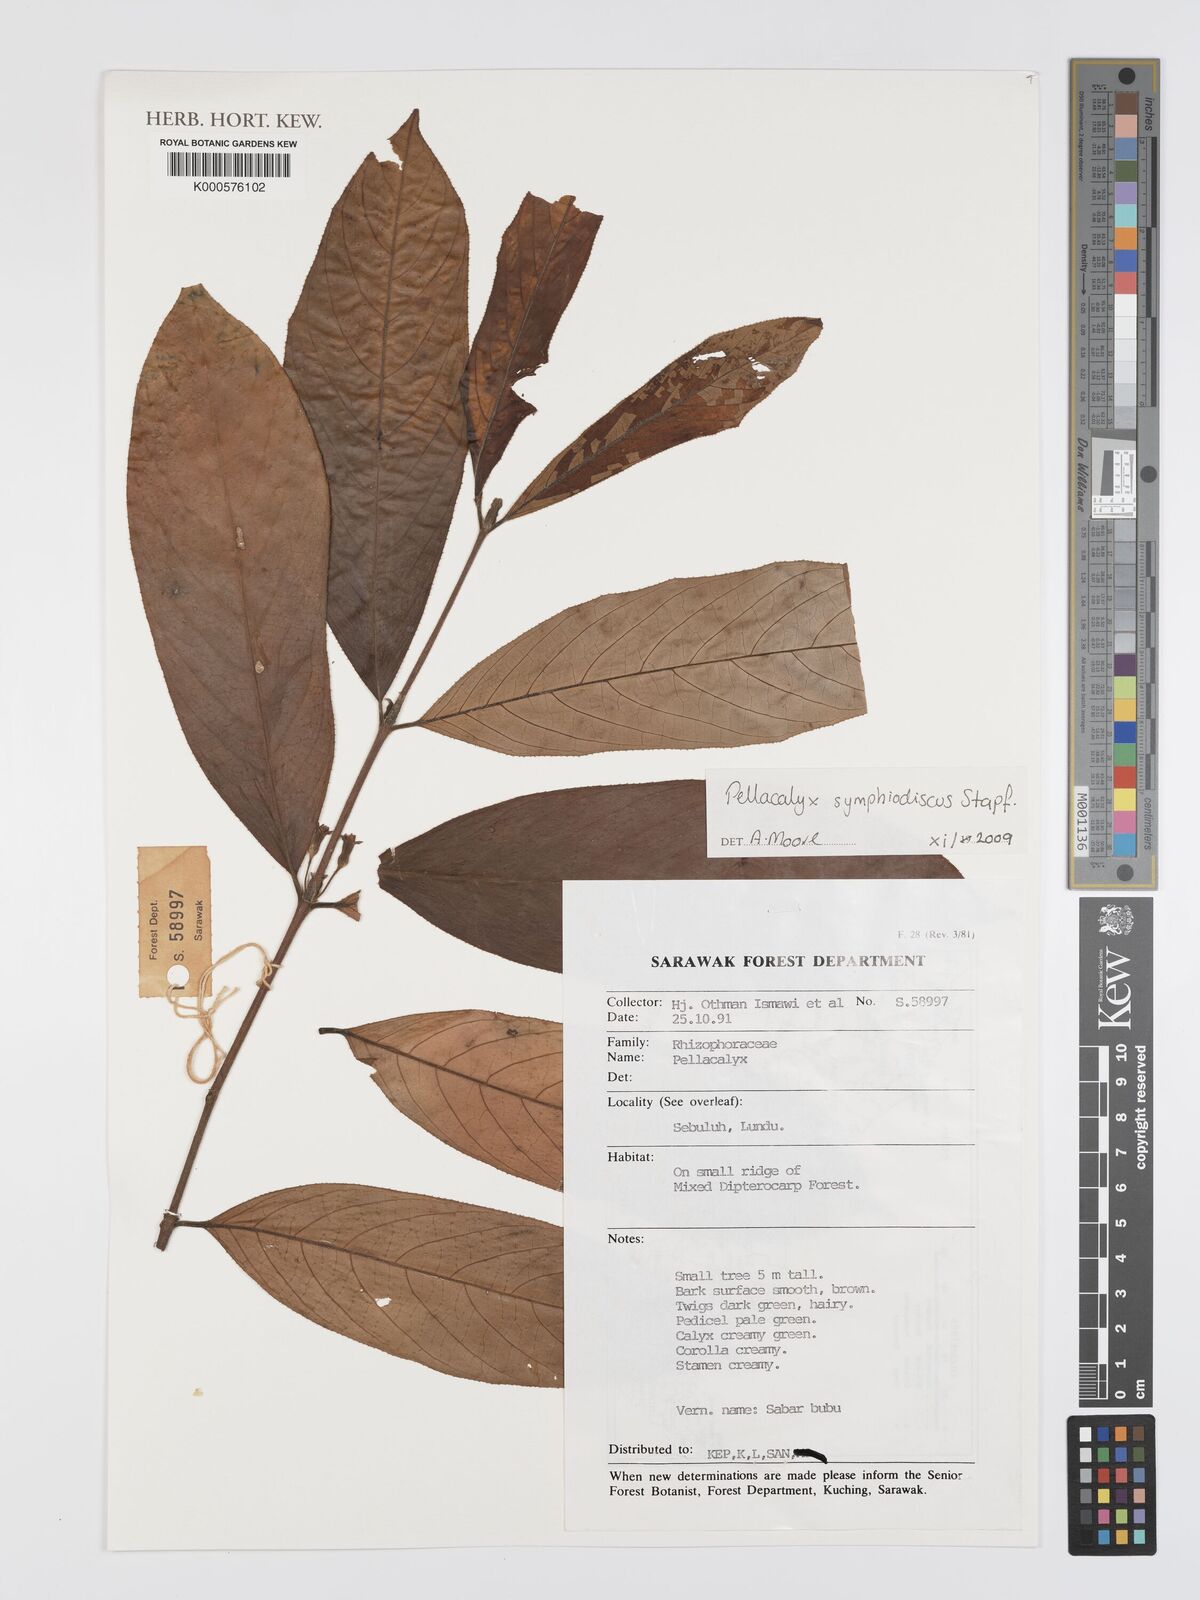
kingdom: Plantae
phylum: Tracheophyta
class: Magnoliopsida
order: Malpighiales
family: Rhizophoraceae
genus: Pellacalyx
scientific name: Pellacalyx
